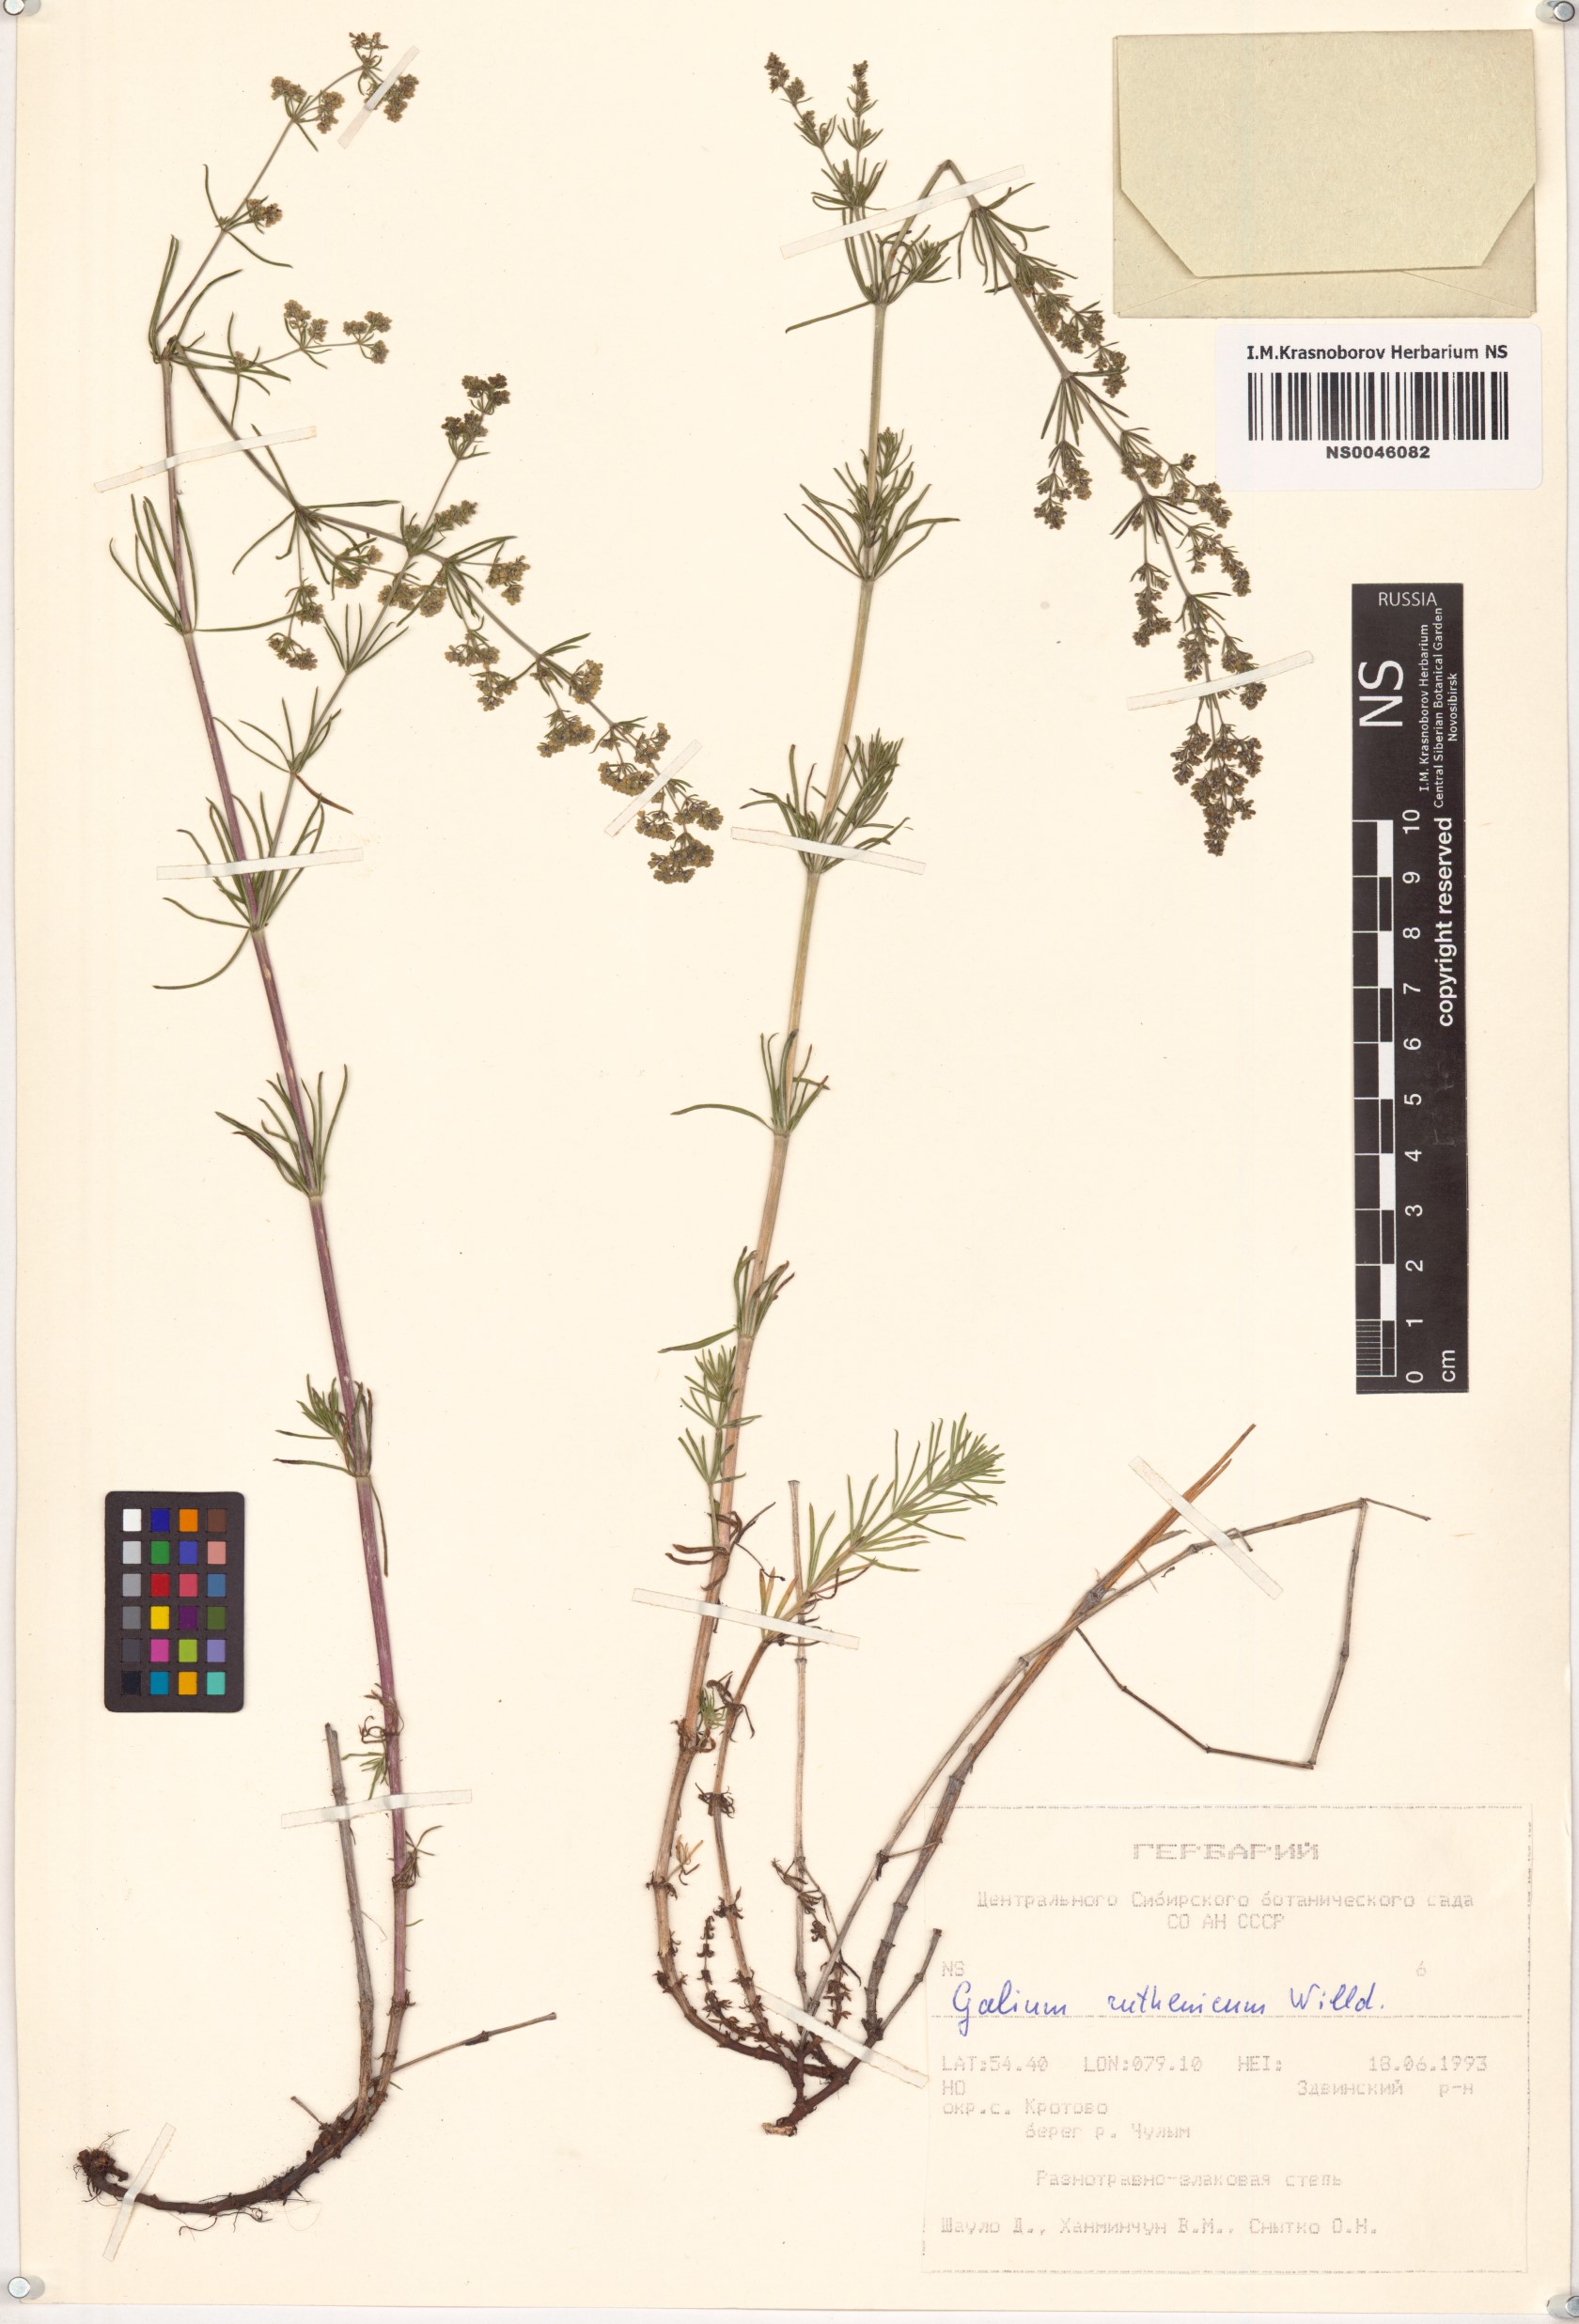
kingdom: Plantae
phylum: Tracheophyta
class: Magnoliopsida
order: Gentianales
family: Rubiaceae
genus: Galium
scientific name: Galium verum
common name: Lady's bedstraw
